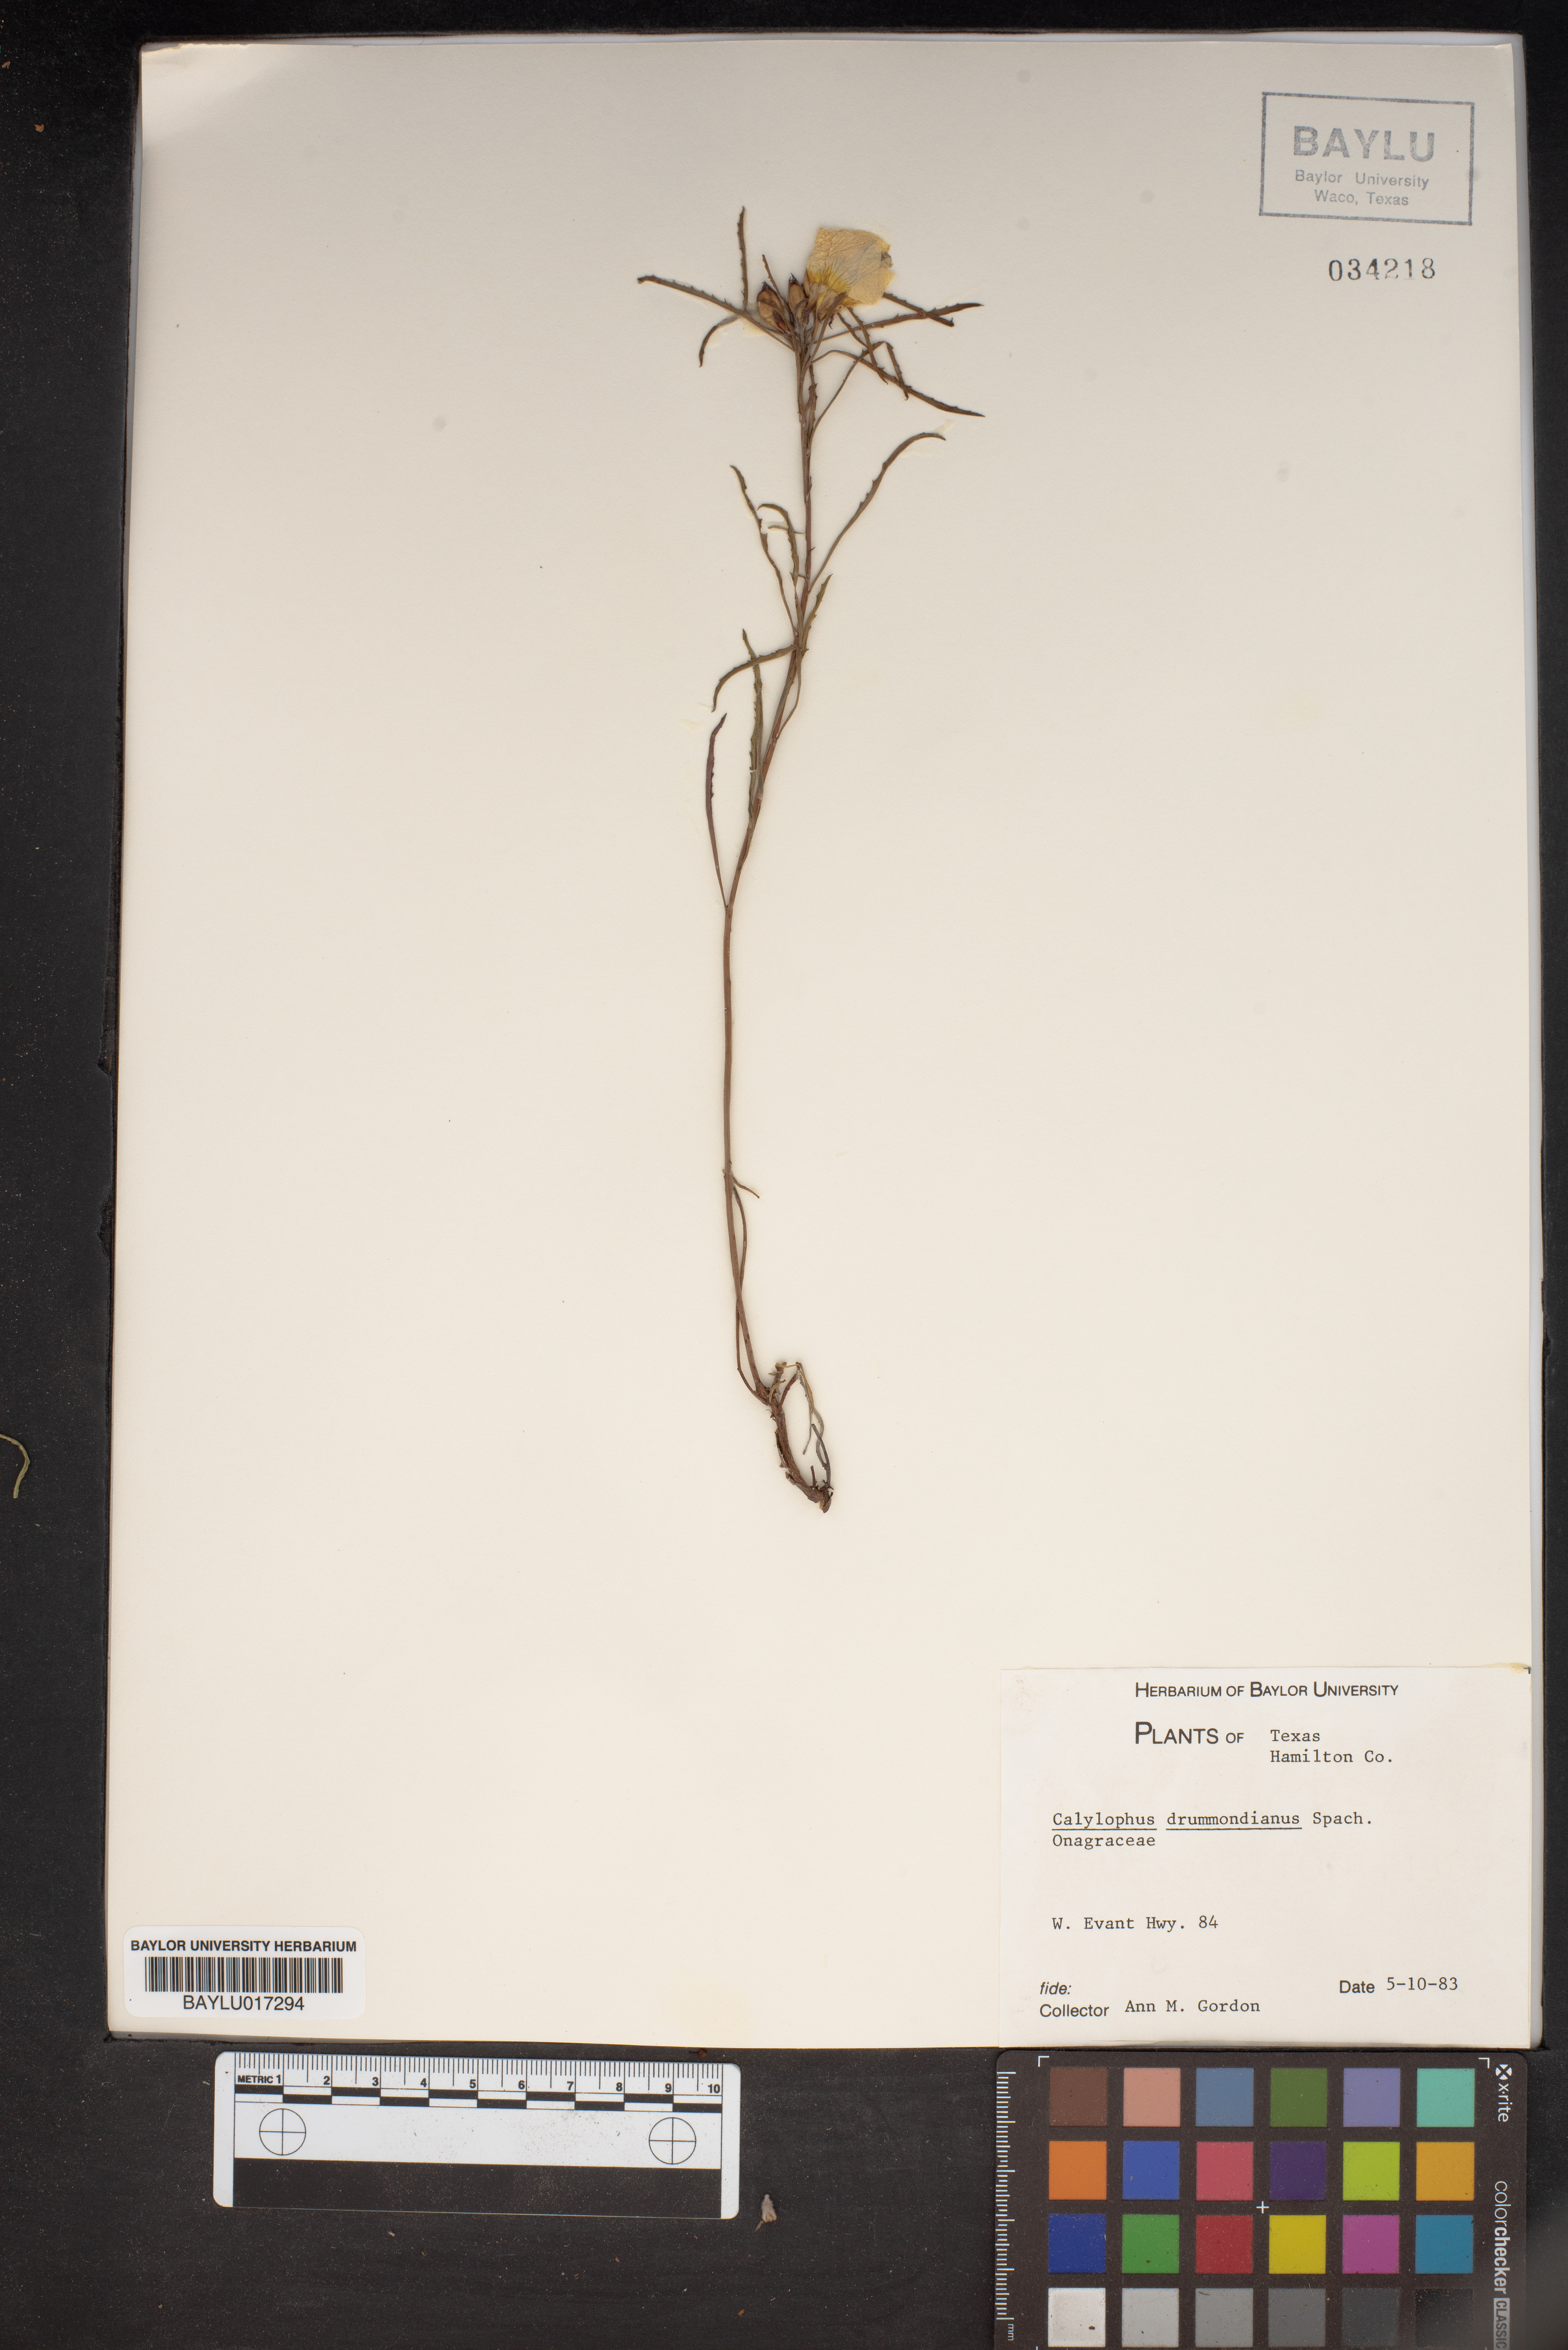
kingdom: Plantae
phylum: Tracheophyta
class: Magnoliopsida
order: Myrtales
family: Onagraceae
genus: Oenothera
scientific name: Oenothera serrulata
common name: Half-shrub calylophus
